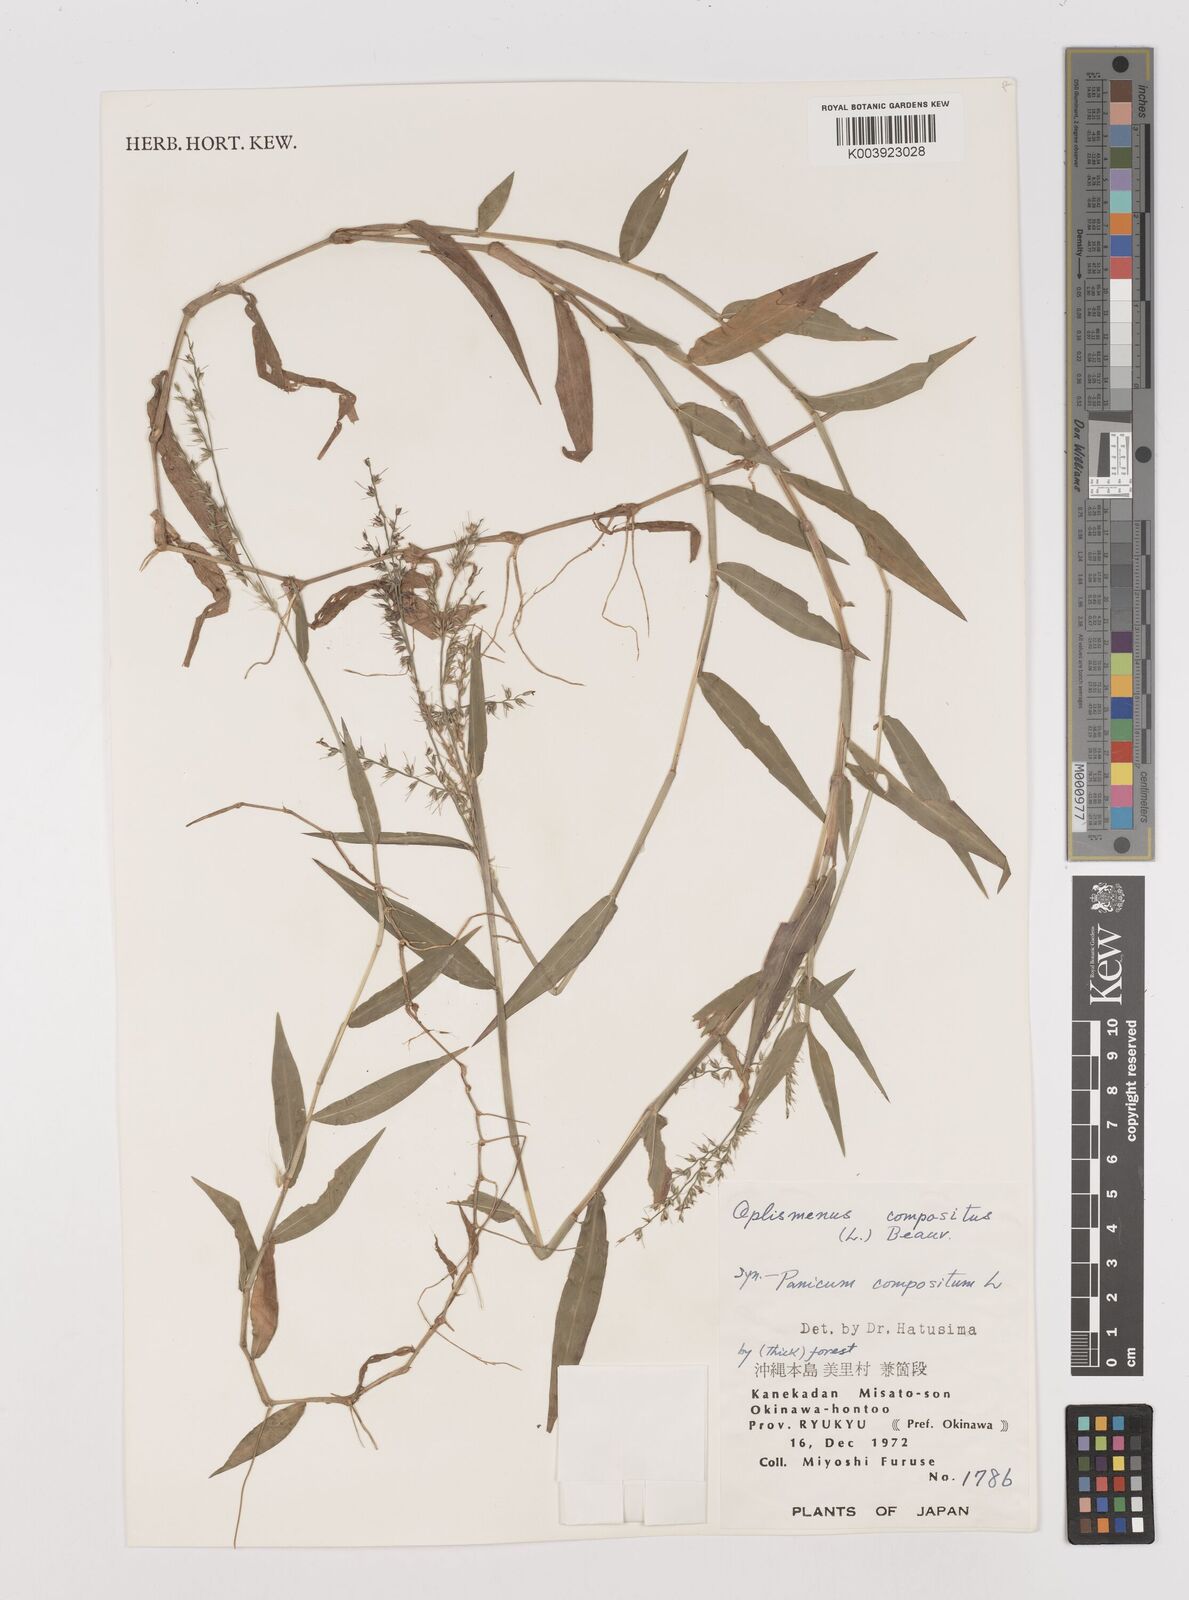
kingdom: Plantae
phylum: Tracheophyta
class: Liliopsida
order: Poales
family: Poaceae
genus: Oplismenus
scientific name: Oplismenus compositus
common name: Running mountain grass
